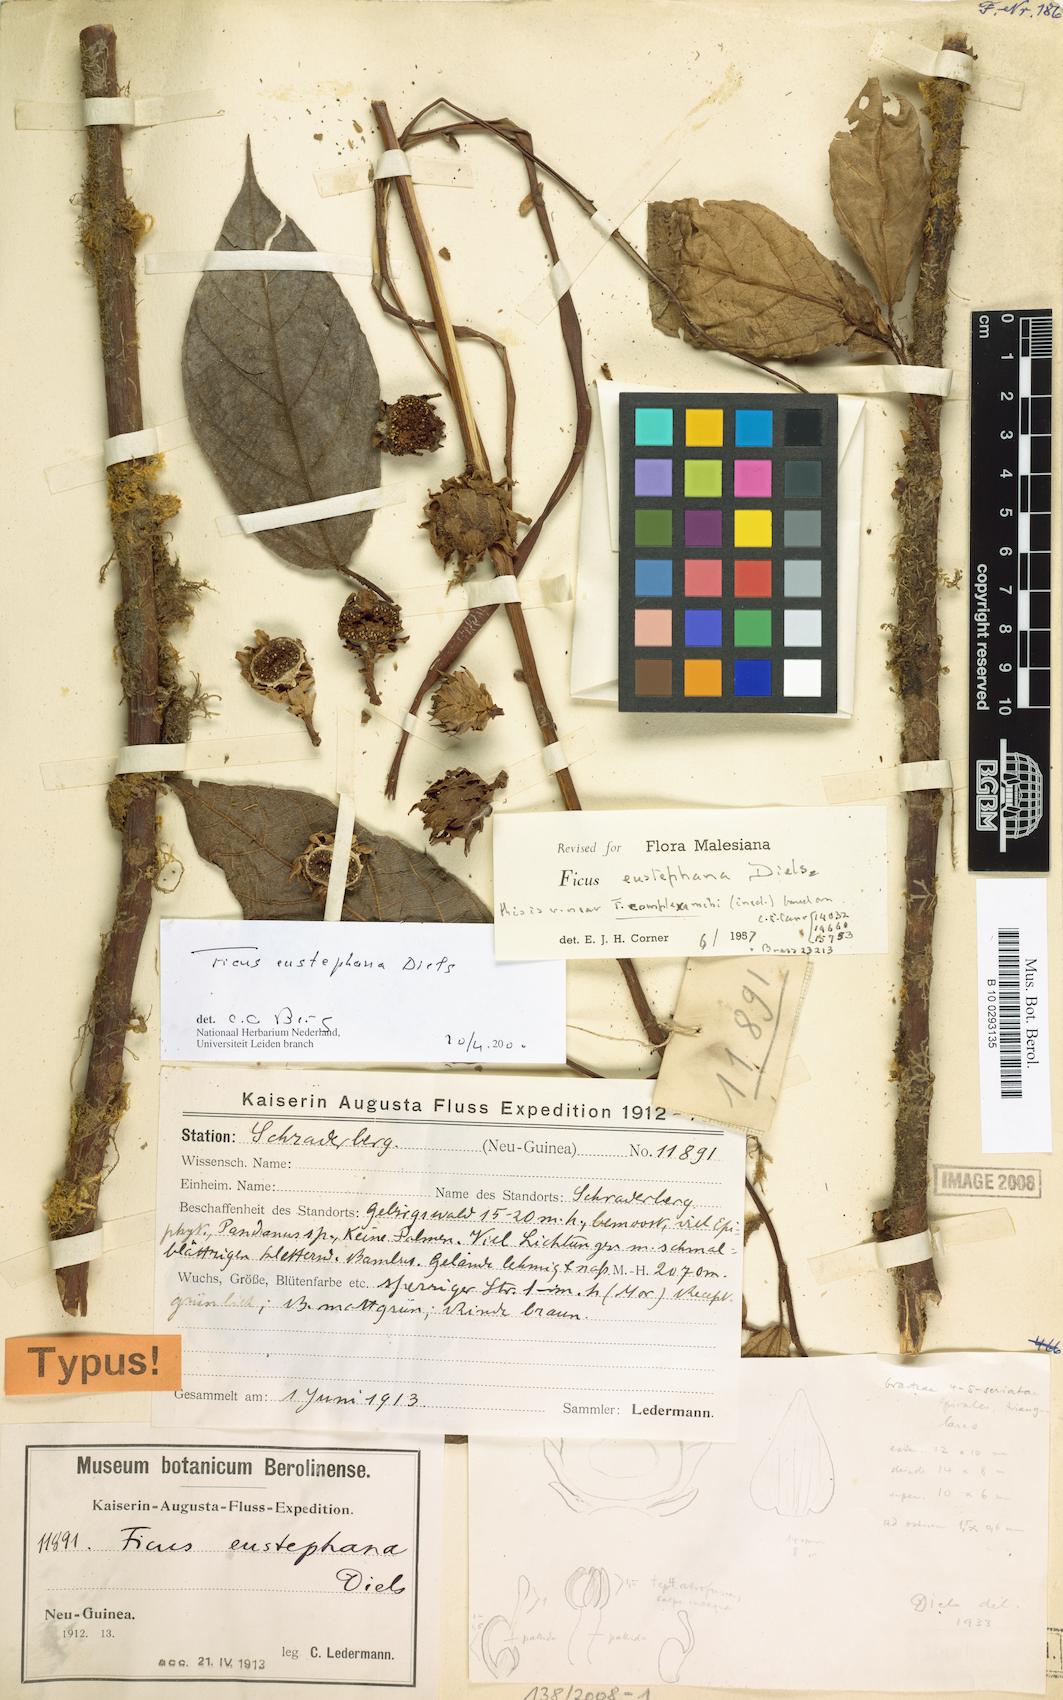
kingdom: Plantae
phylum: Tracheophyta
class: Magnoliopsida
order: Rosales
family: Moraceae
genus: Ficus
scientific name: Ficus eustephana
